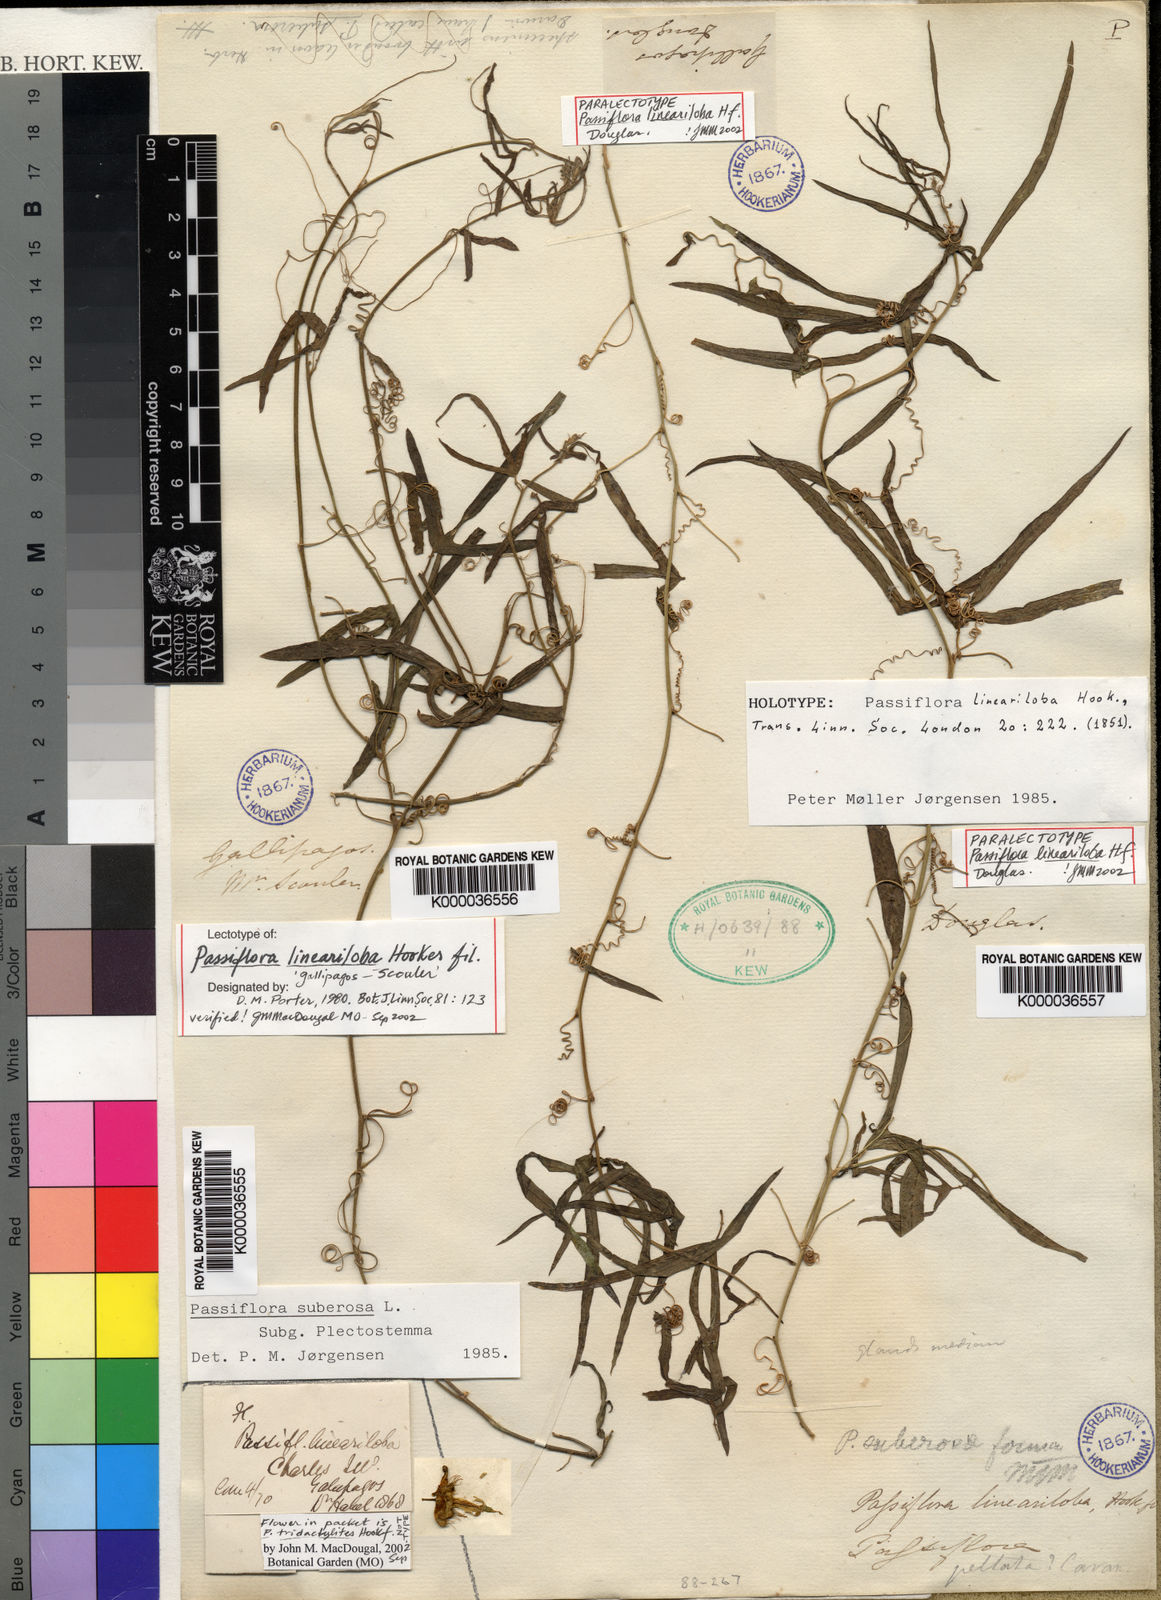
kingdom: Plantae
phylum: Tracheophyta
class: Magnoliopsida
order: Malpighiales
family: Passifloraceae
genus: Passiflora
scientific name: Passiflora suberosa
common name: Wild passionfruit
